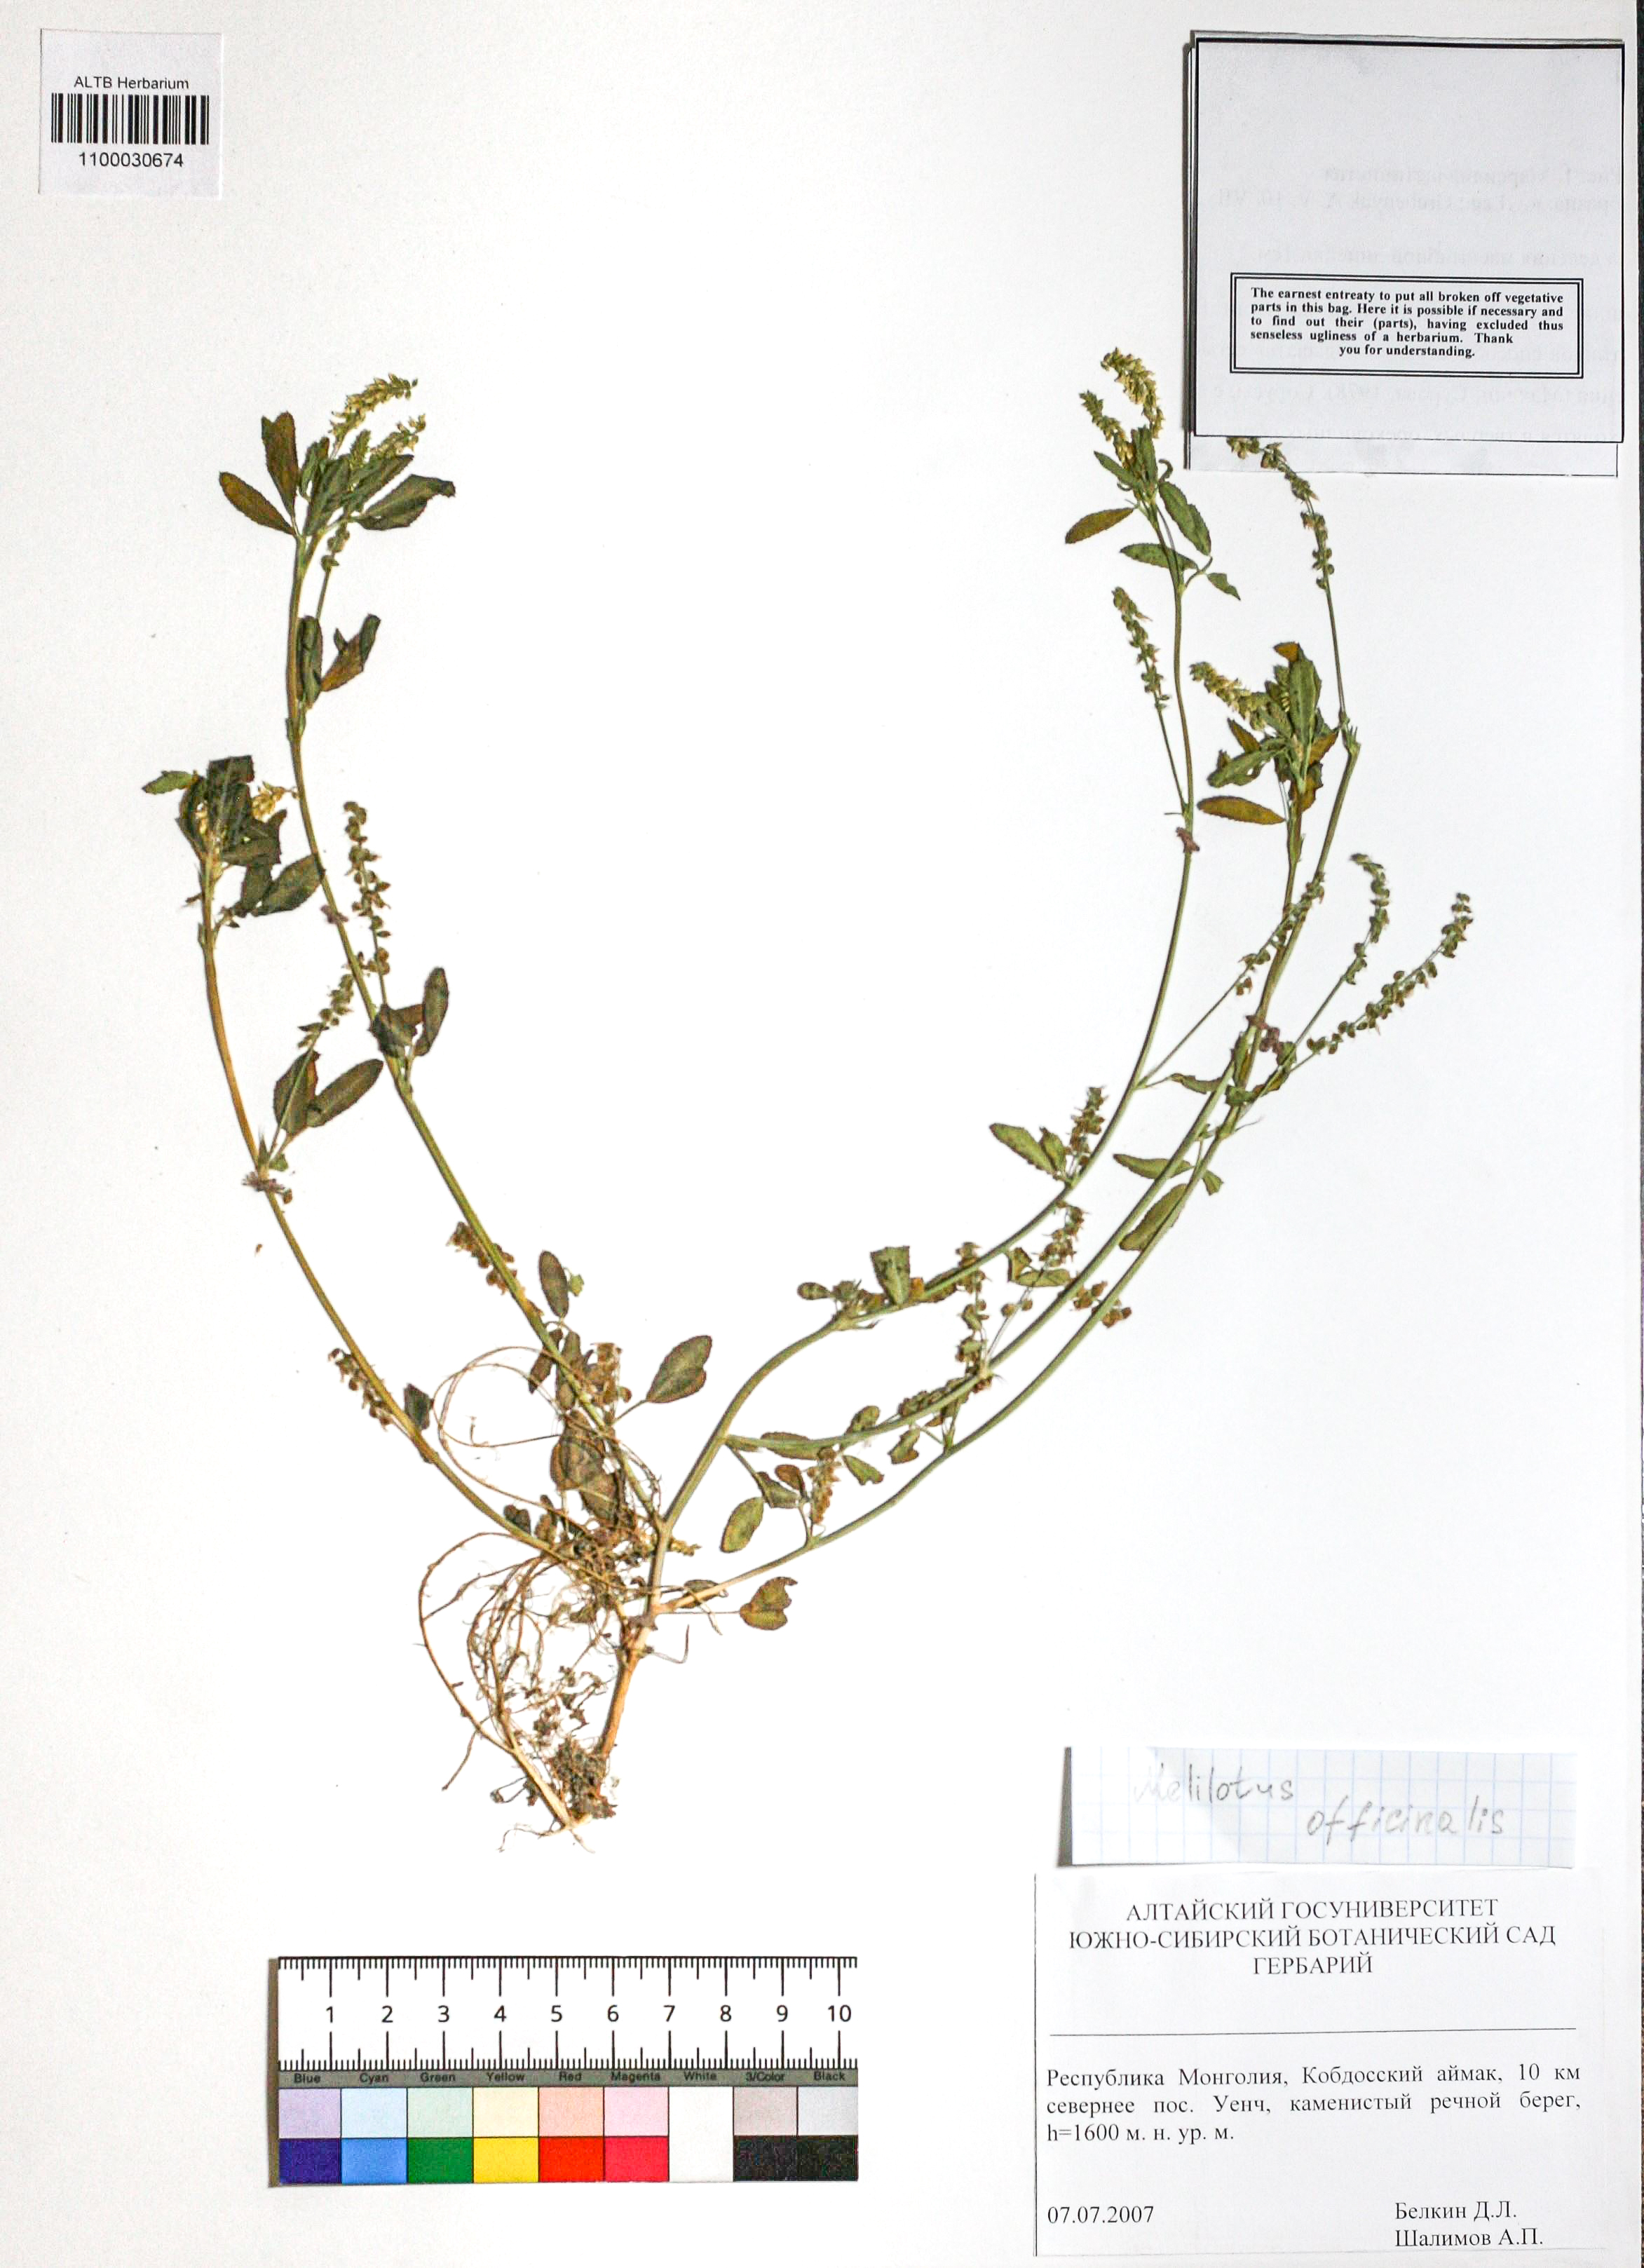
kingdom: Plantae
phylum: Tracheophyta
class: Magnoliopsida
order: Fabales
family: Fabaceae
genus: Melilotus
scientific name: Melilotus officinalis
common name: Sweetclover
